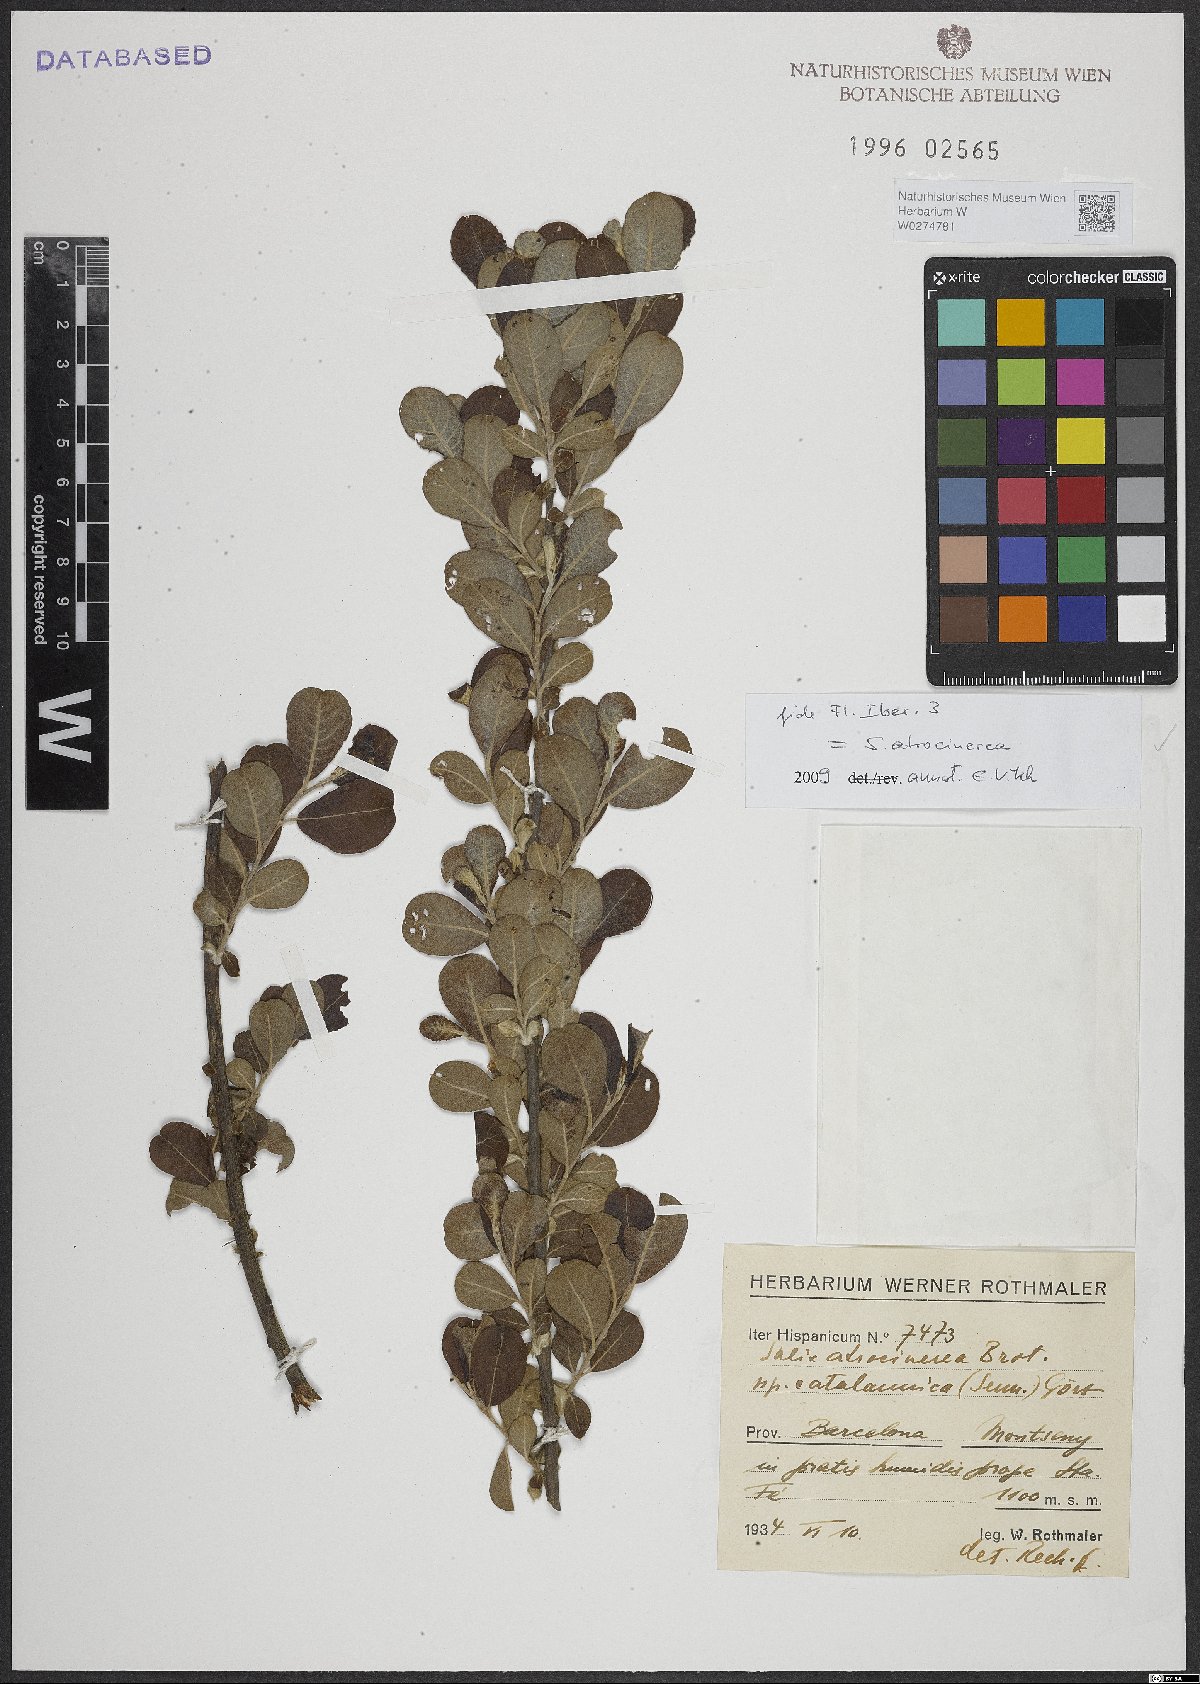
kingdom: Plantae
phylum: Tracheophyta
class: Magnoliopsida
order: Malpighiales
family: Salicaceae
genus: Salix
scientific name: Salix atrocinerea
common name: Rusty willow
